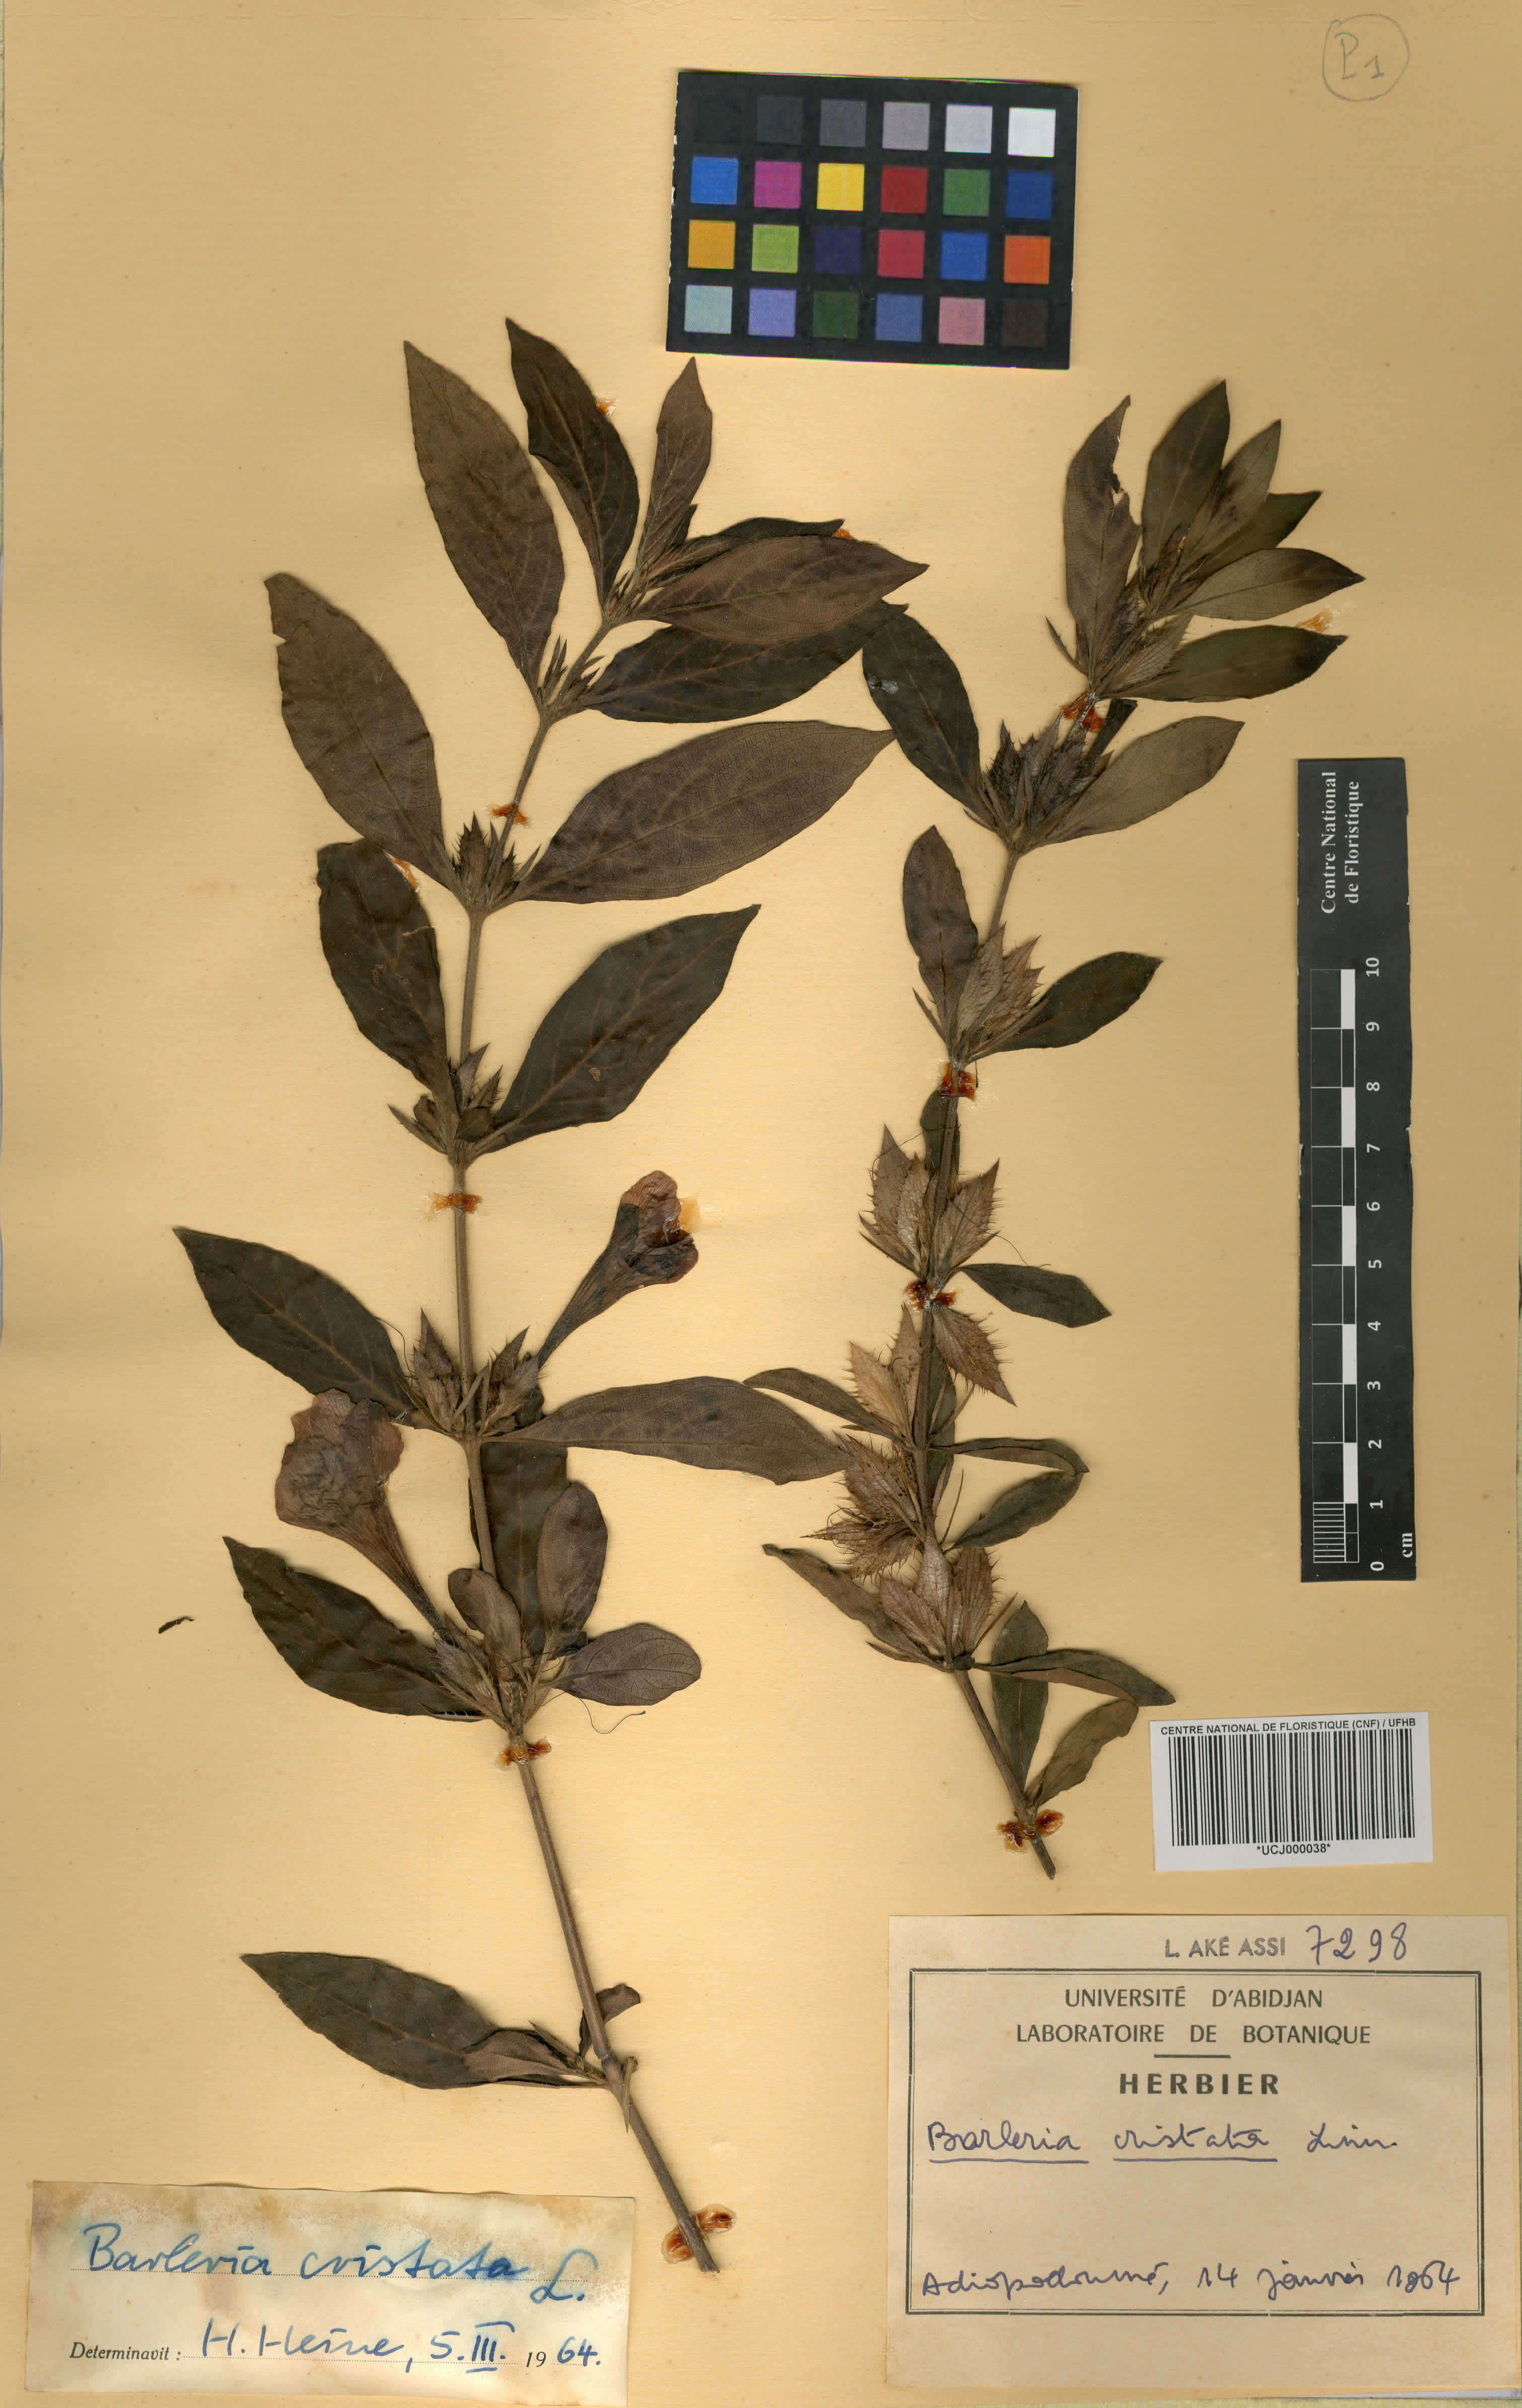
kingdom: Plantae
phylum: Tracheophyta
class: Magnoliopsida
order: Lamiales
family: Acanthaceae
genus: Barleria
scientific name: Barleria cristata
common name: Crested philippine violet
